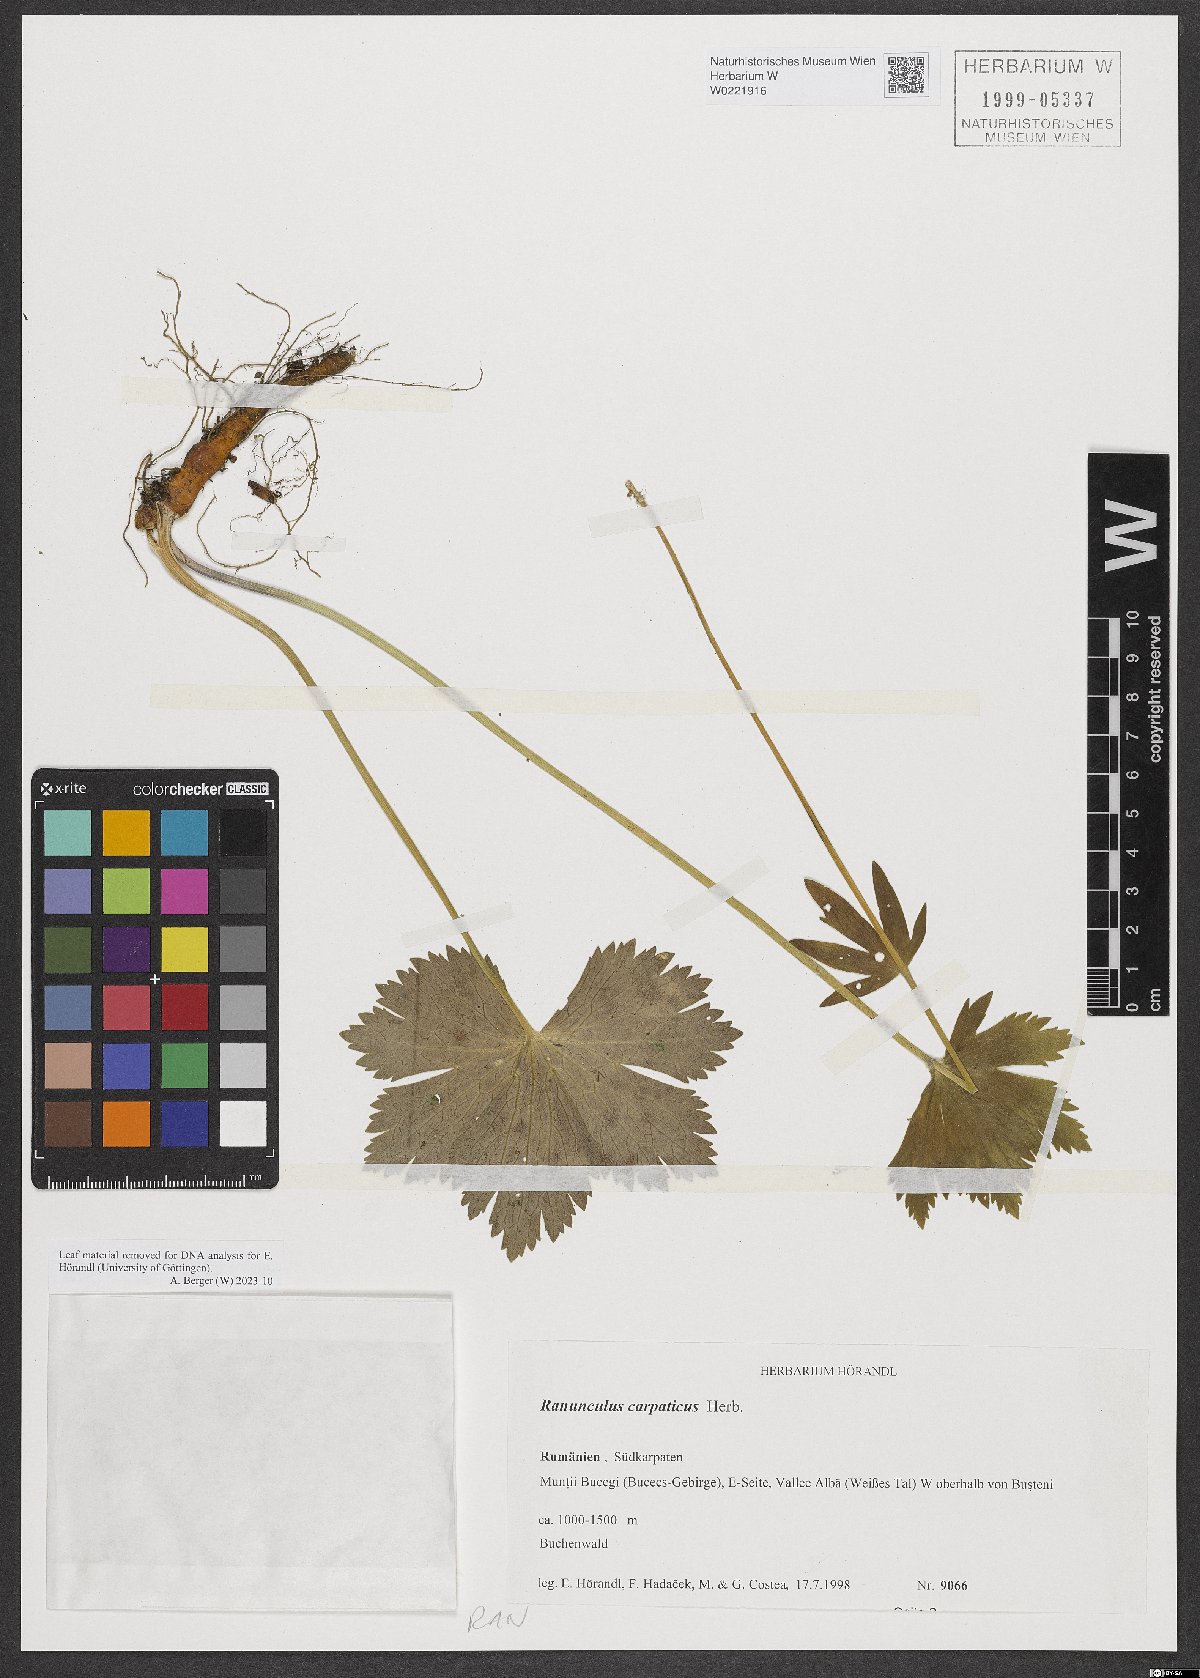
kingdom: Plantae
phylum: Tracheophyta
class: Magnoliopsida
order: Ranunculales
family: Ranunculaceae
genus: Ranunculus
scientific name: Ranunculus carpaticus
